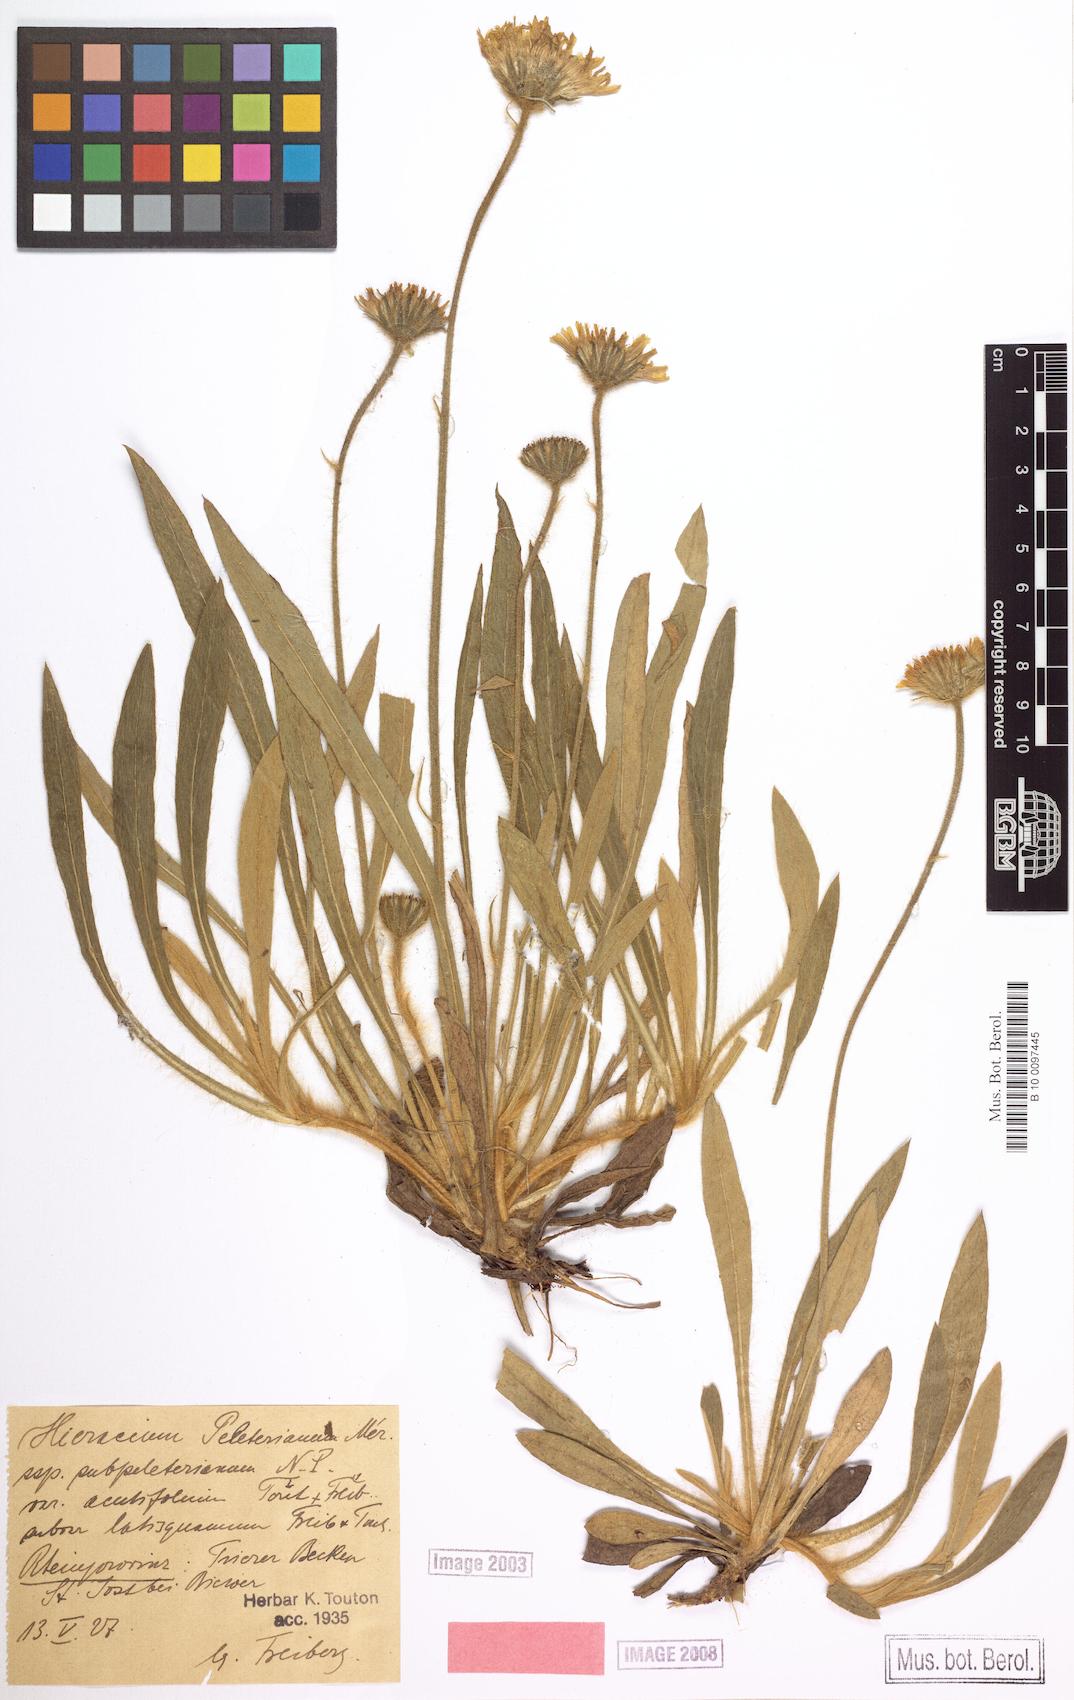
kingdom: Plantae
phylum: Tracheophyta
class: Magnoliopsida
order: Asterales
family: Asteraceae
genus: Pilosella
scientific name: Pilosella peleteriana
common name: Shaggy mouse-ear-hawkweed
